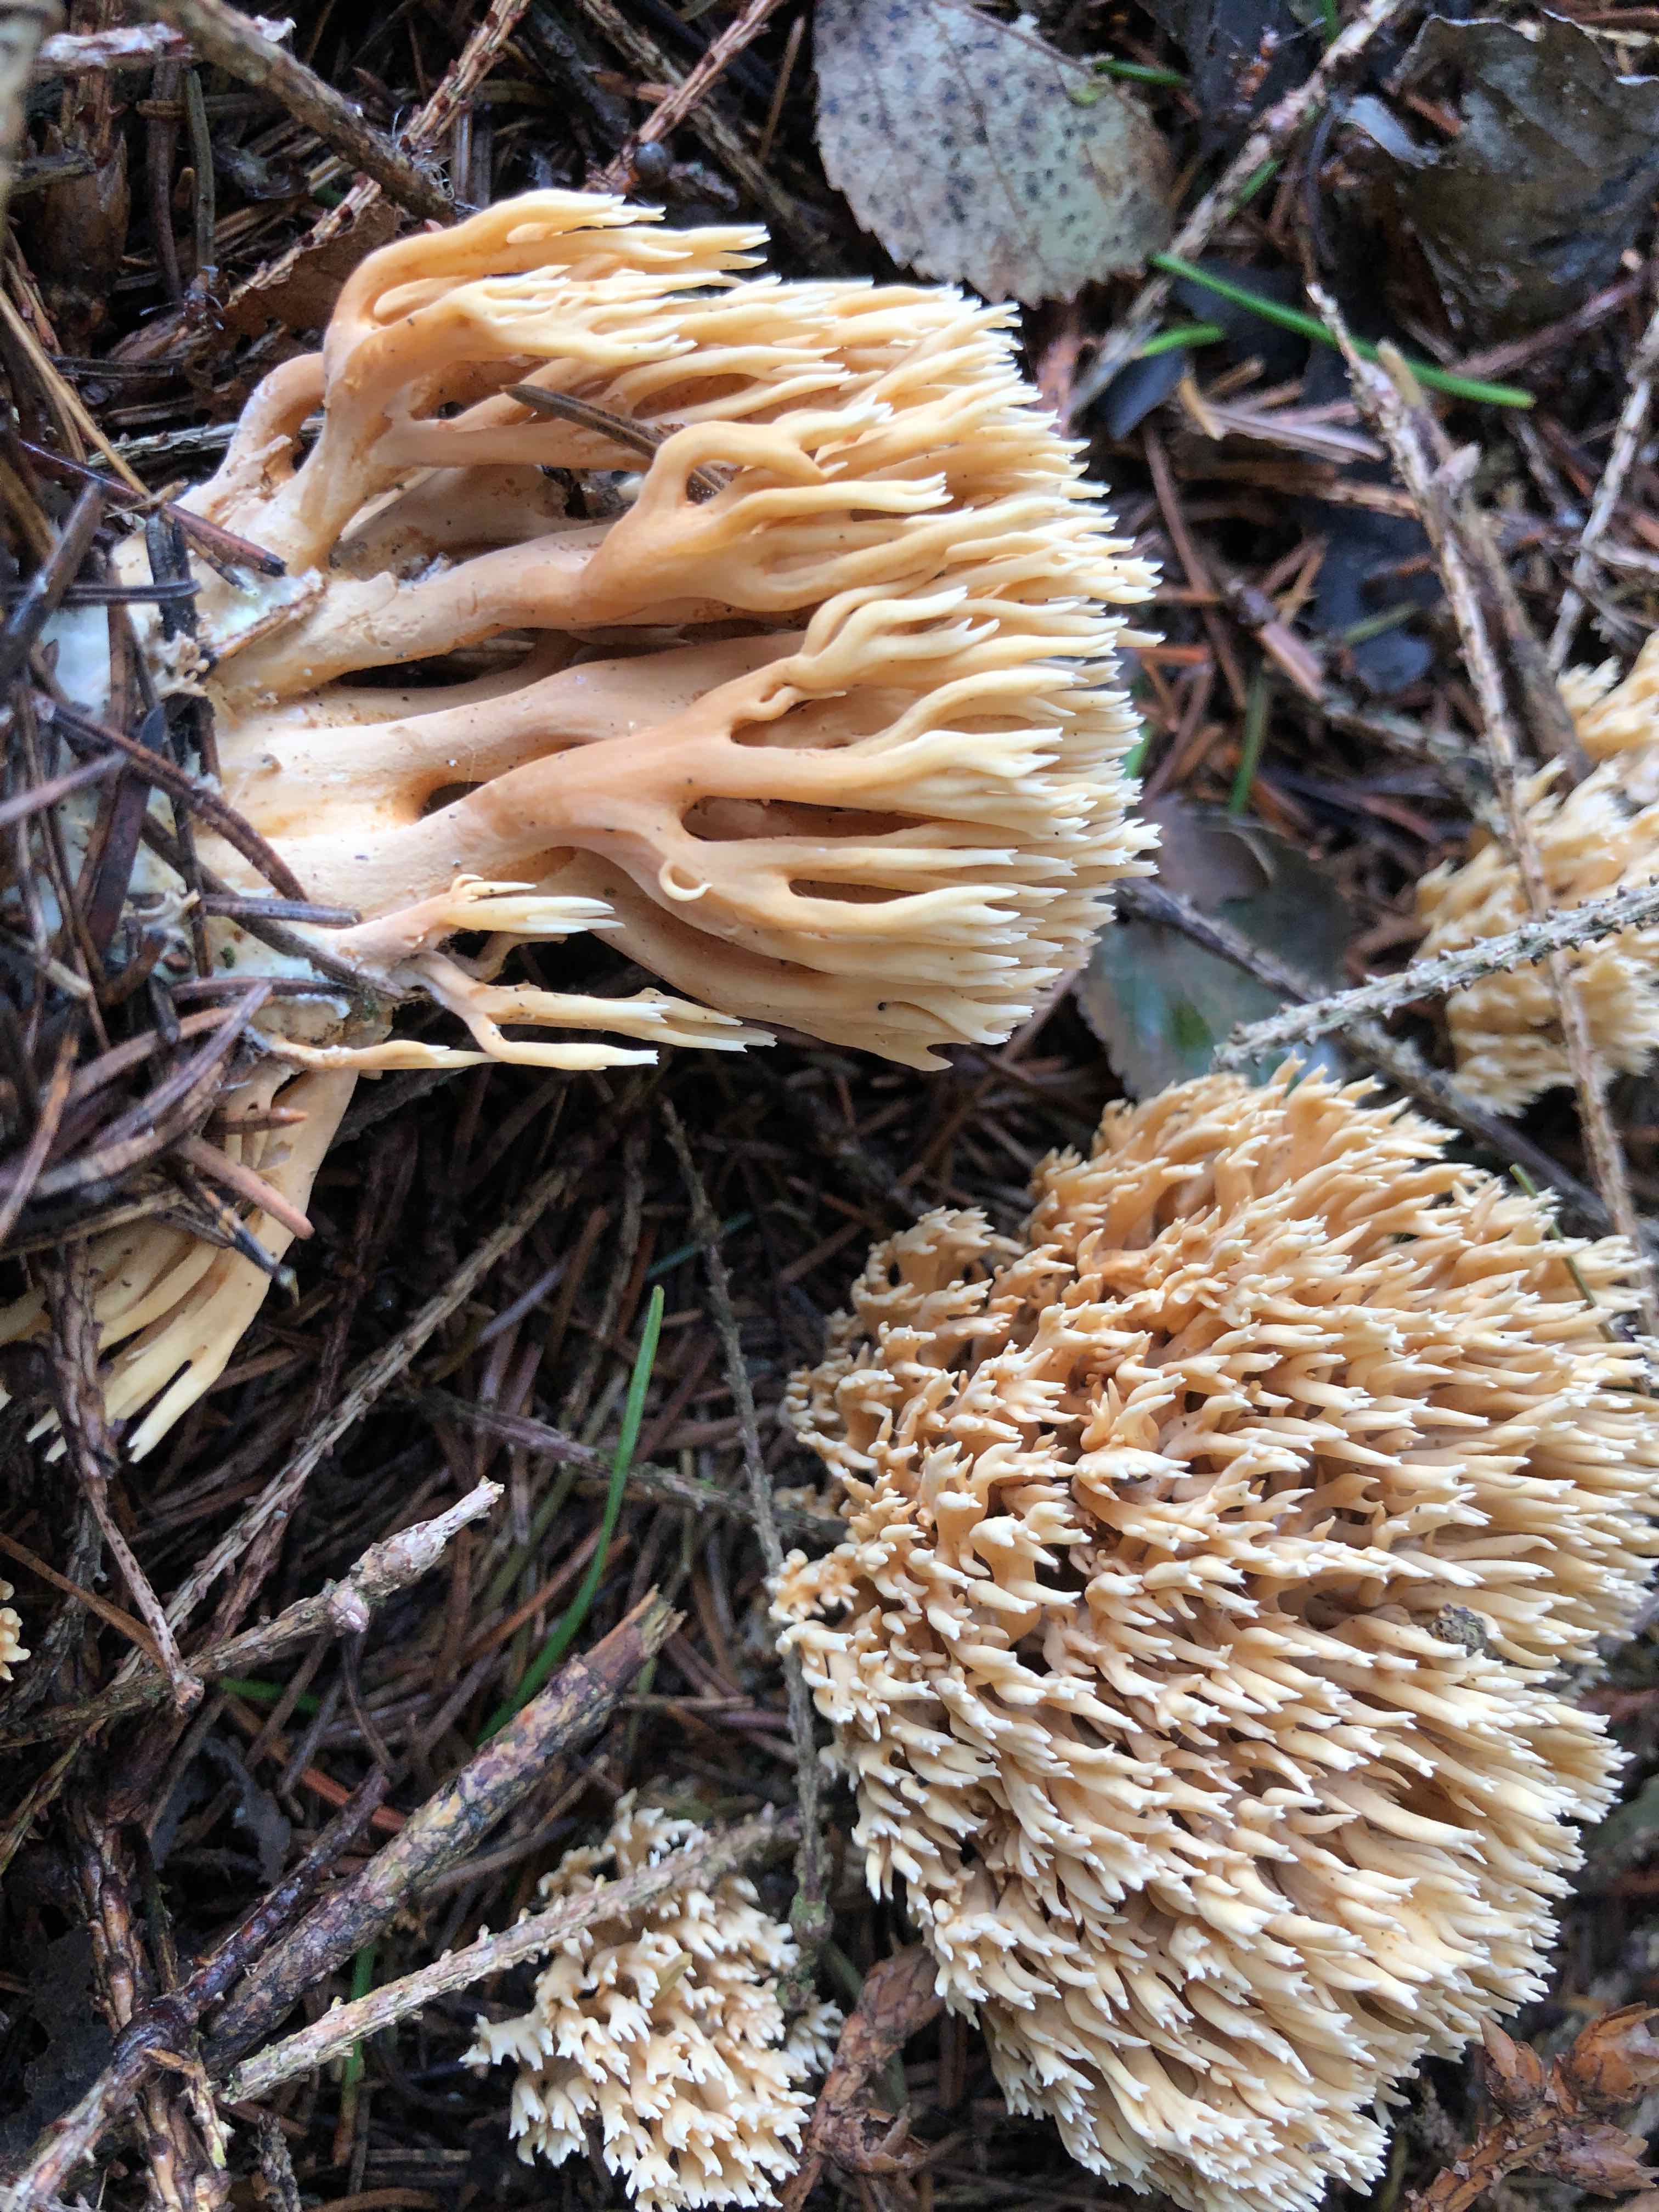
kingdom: Fungi
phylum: Basidiomycota
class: Agaricomycetes
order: Gomphales
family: Gomphaceae
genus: Phaeoclavulina
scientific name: Phaeoclavulina eumorpha
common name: gran-koralsvamp
